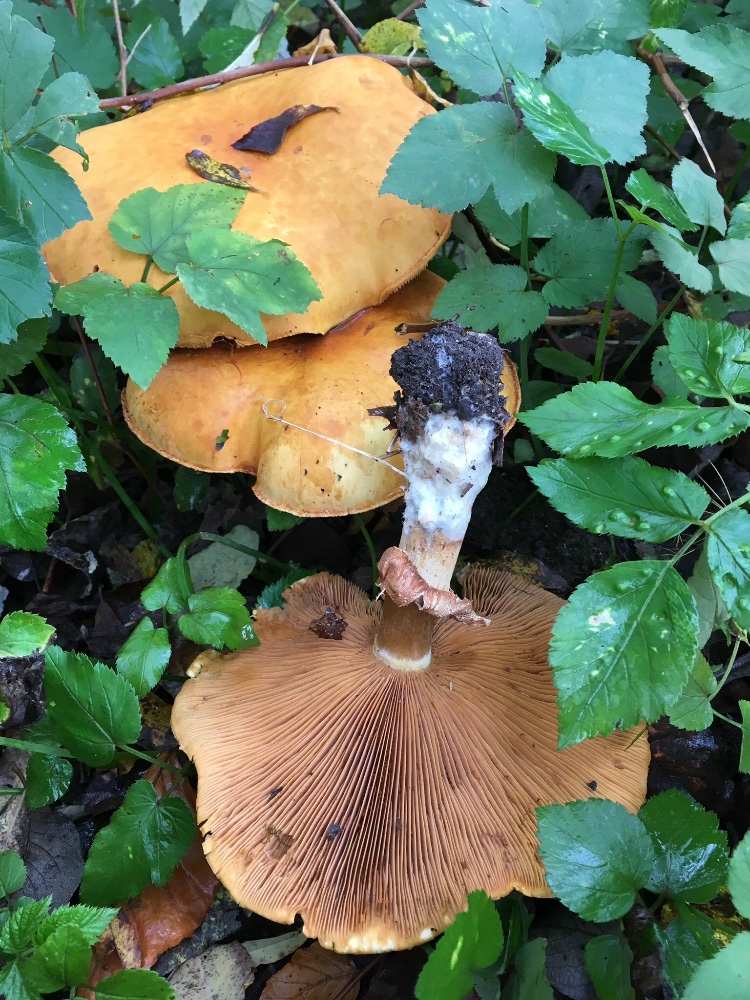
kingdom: Fungi
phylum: Basidiomycota
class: Agaricomycetes
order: Agaricales
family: Tricholomataceae
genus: Phaeolepiota
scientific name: Phaeolepiota aurea
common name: gyldenhat
